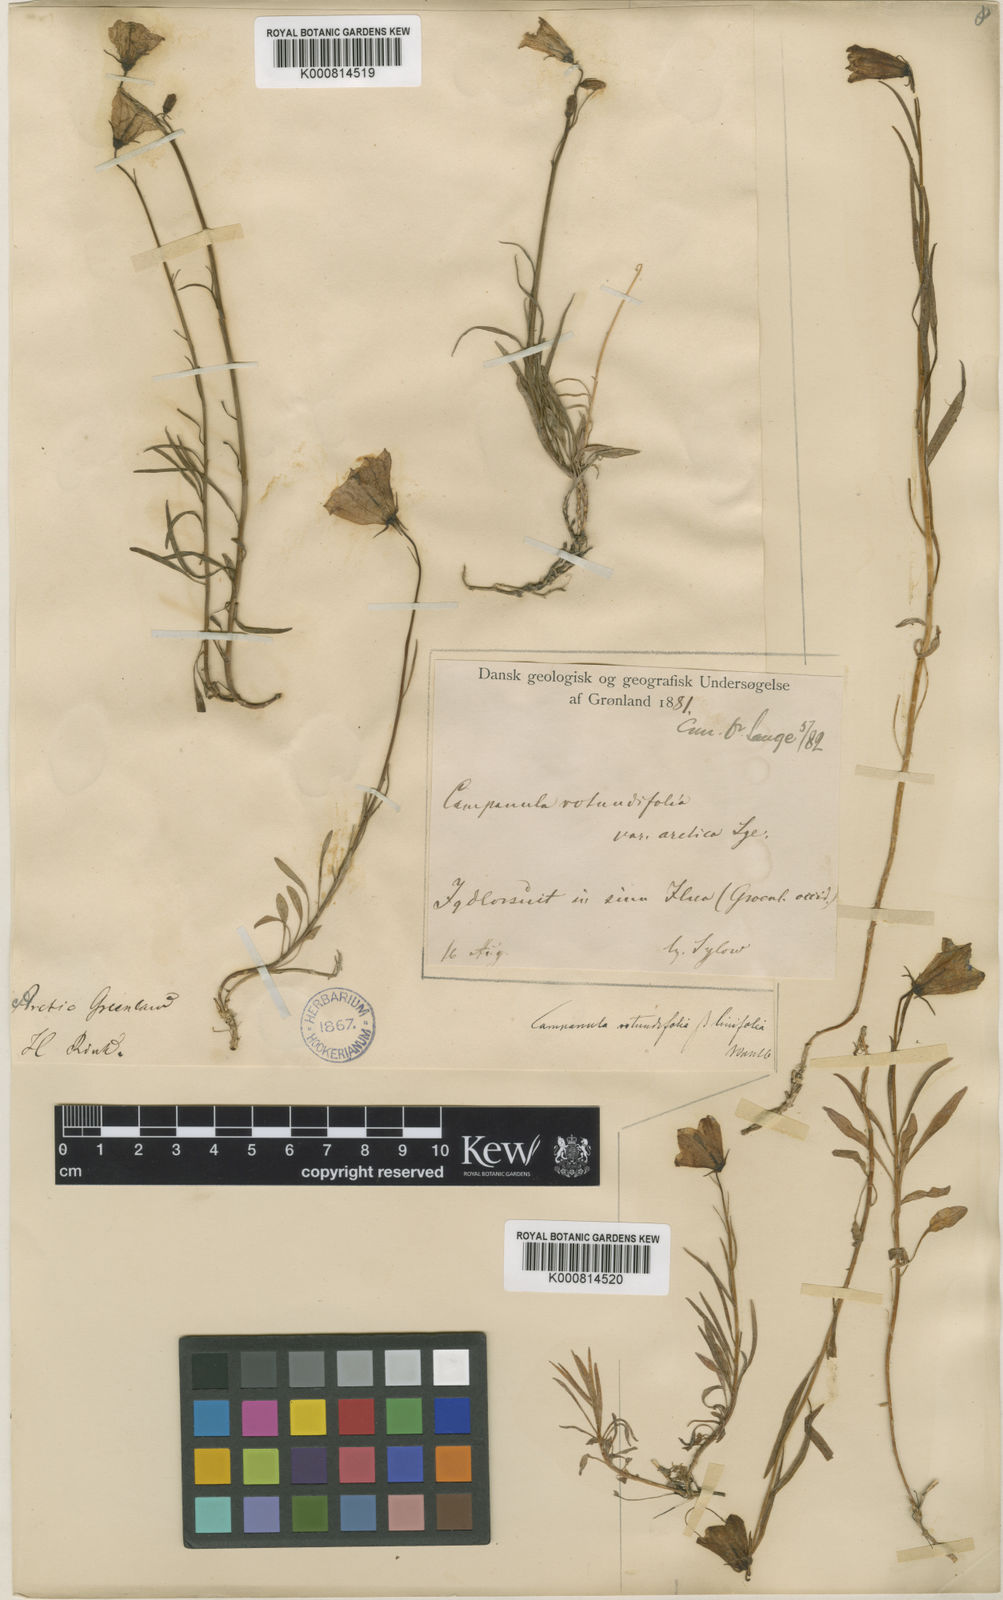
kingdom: Plantae
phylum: Tracheophyta
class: Magnoliopsida
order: Asterales
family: Campanulaceae
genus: Campanula
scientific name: Campanula rotundifolia
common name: Harebell
